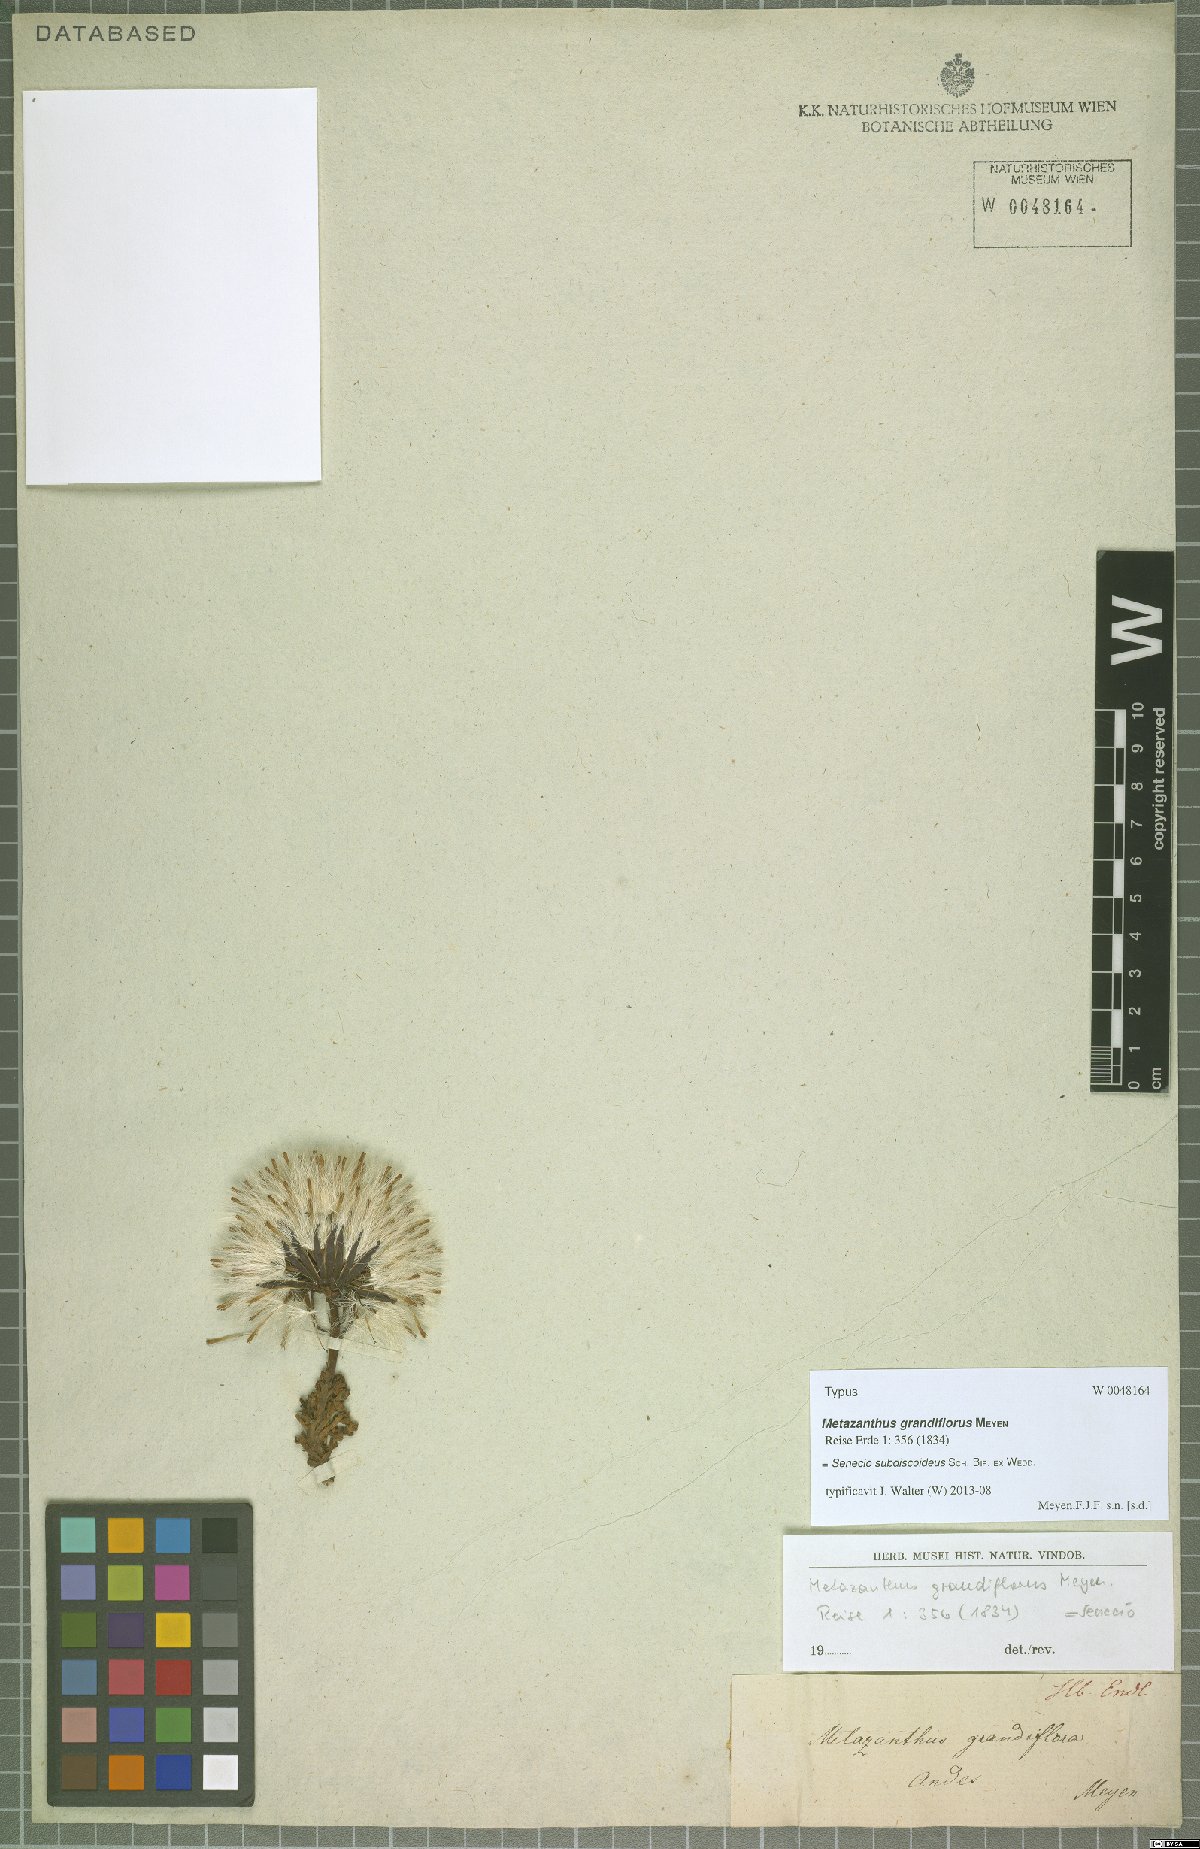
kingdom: Plantae
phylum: Tracheophyta
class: Magnoliopsida
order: Asterales
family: Asteraceae
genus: Senecio
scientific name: Senecio kingii
